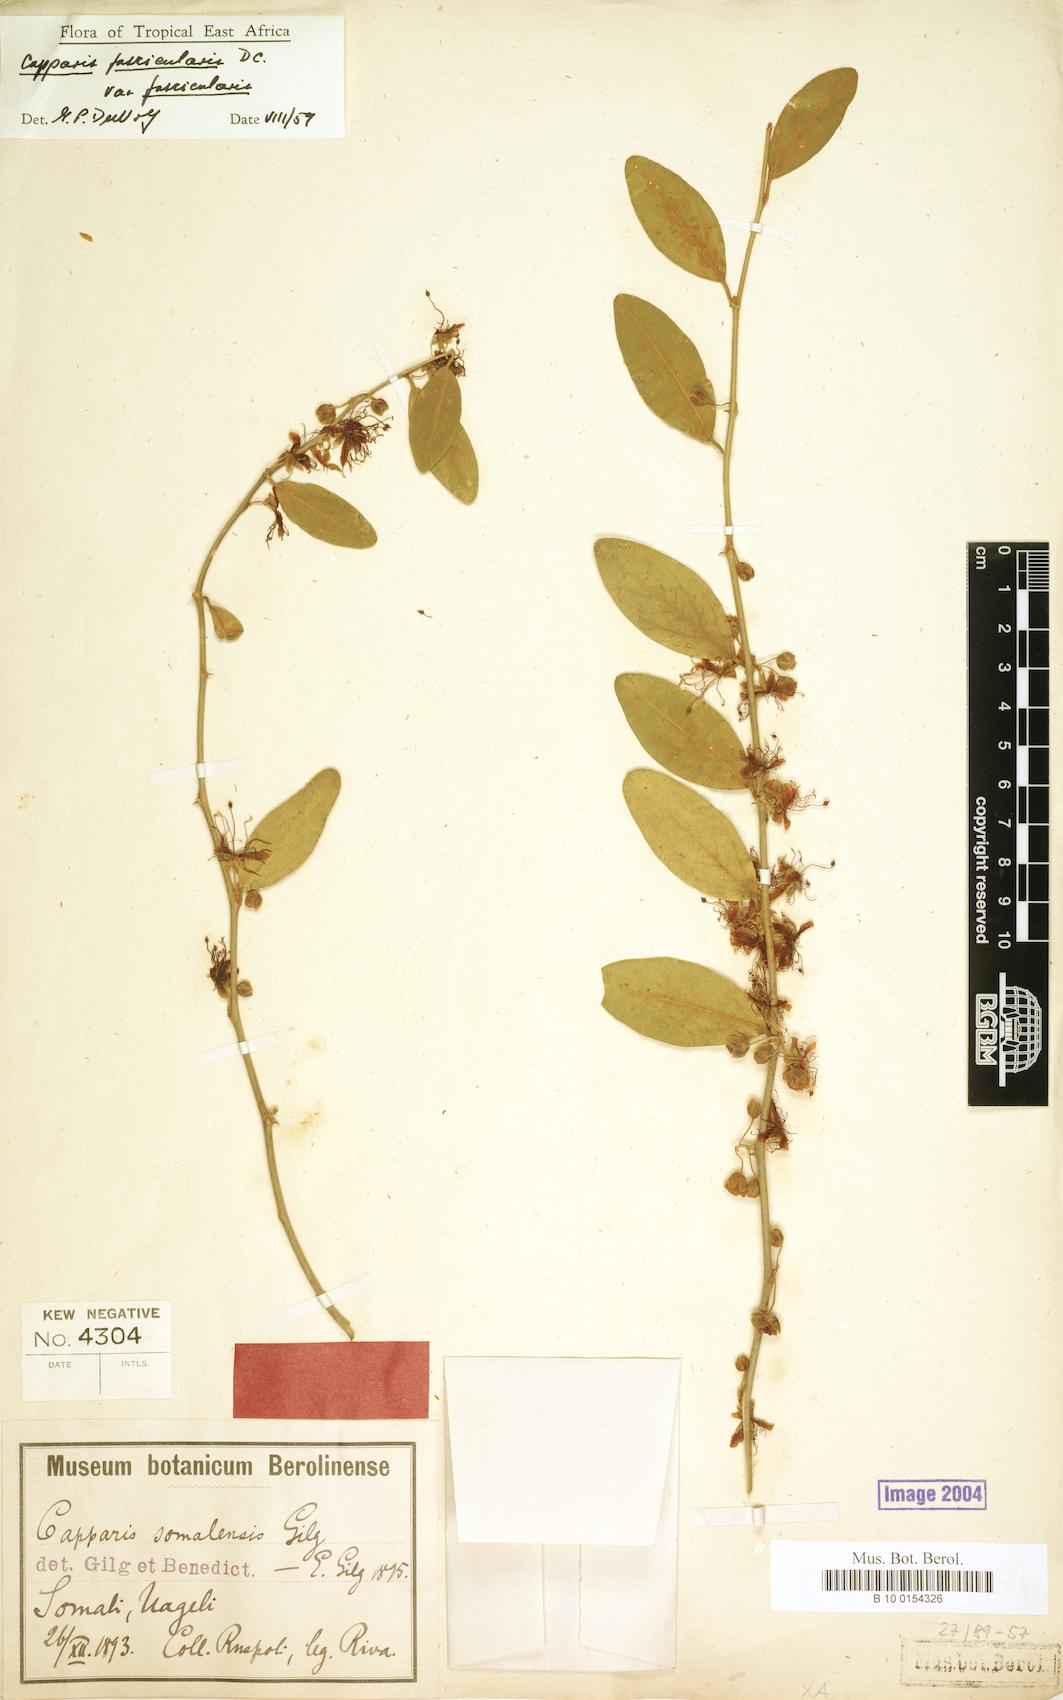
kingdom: Plantae
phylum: Tracheophyta
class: Magnoliopsida
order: Brassicales
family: Capparaceae
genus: Capparis
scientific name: Capparis fascicularis
